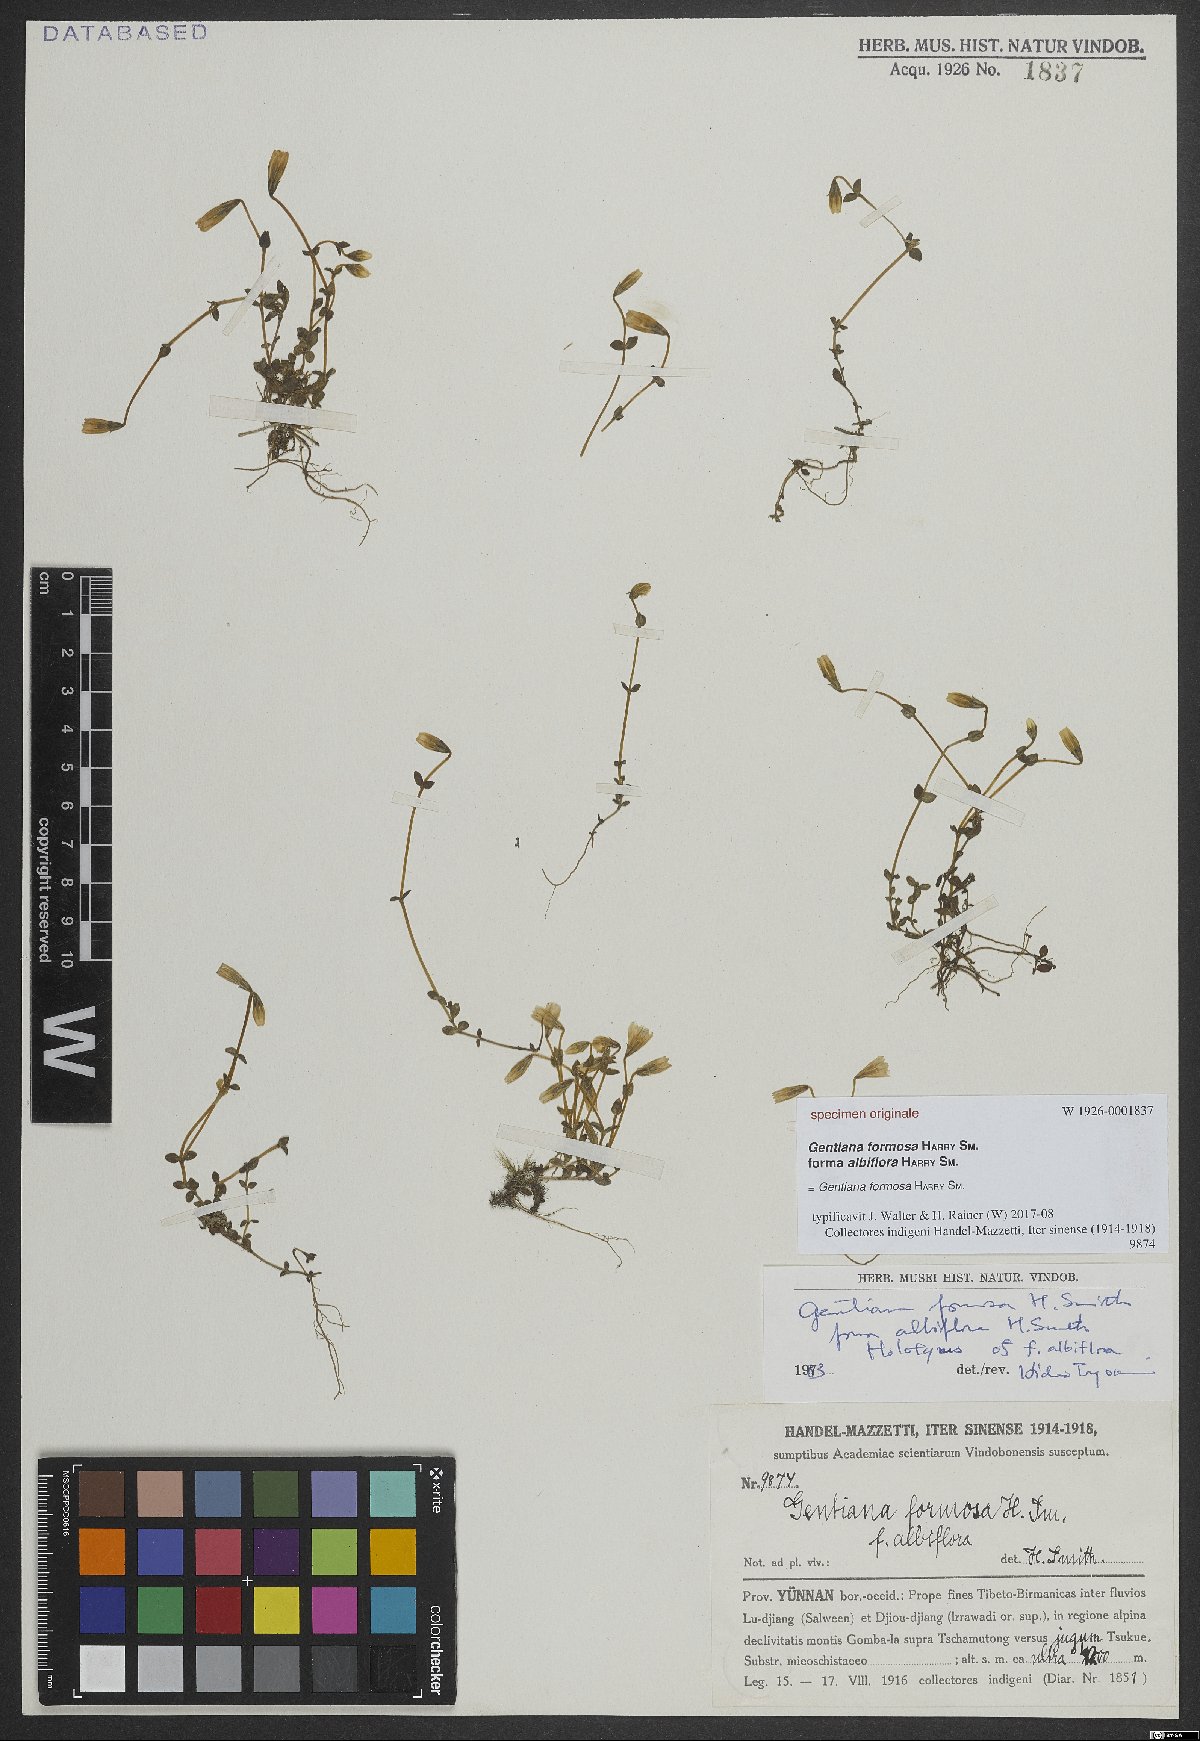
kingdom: Plantae
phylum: Tracheophyta
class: Magnoliopsida
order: Gentianales
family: Gentianaceae
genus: Gentiana
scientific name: Gentiana formosa
